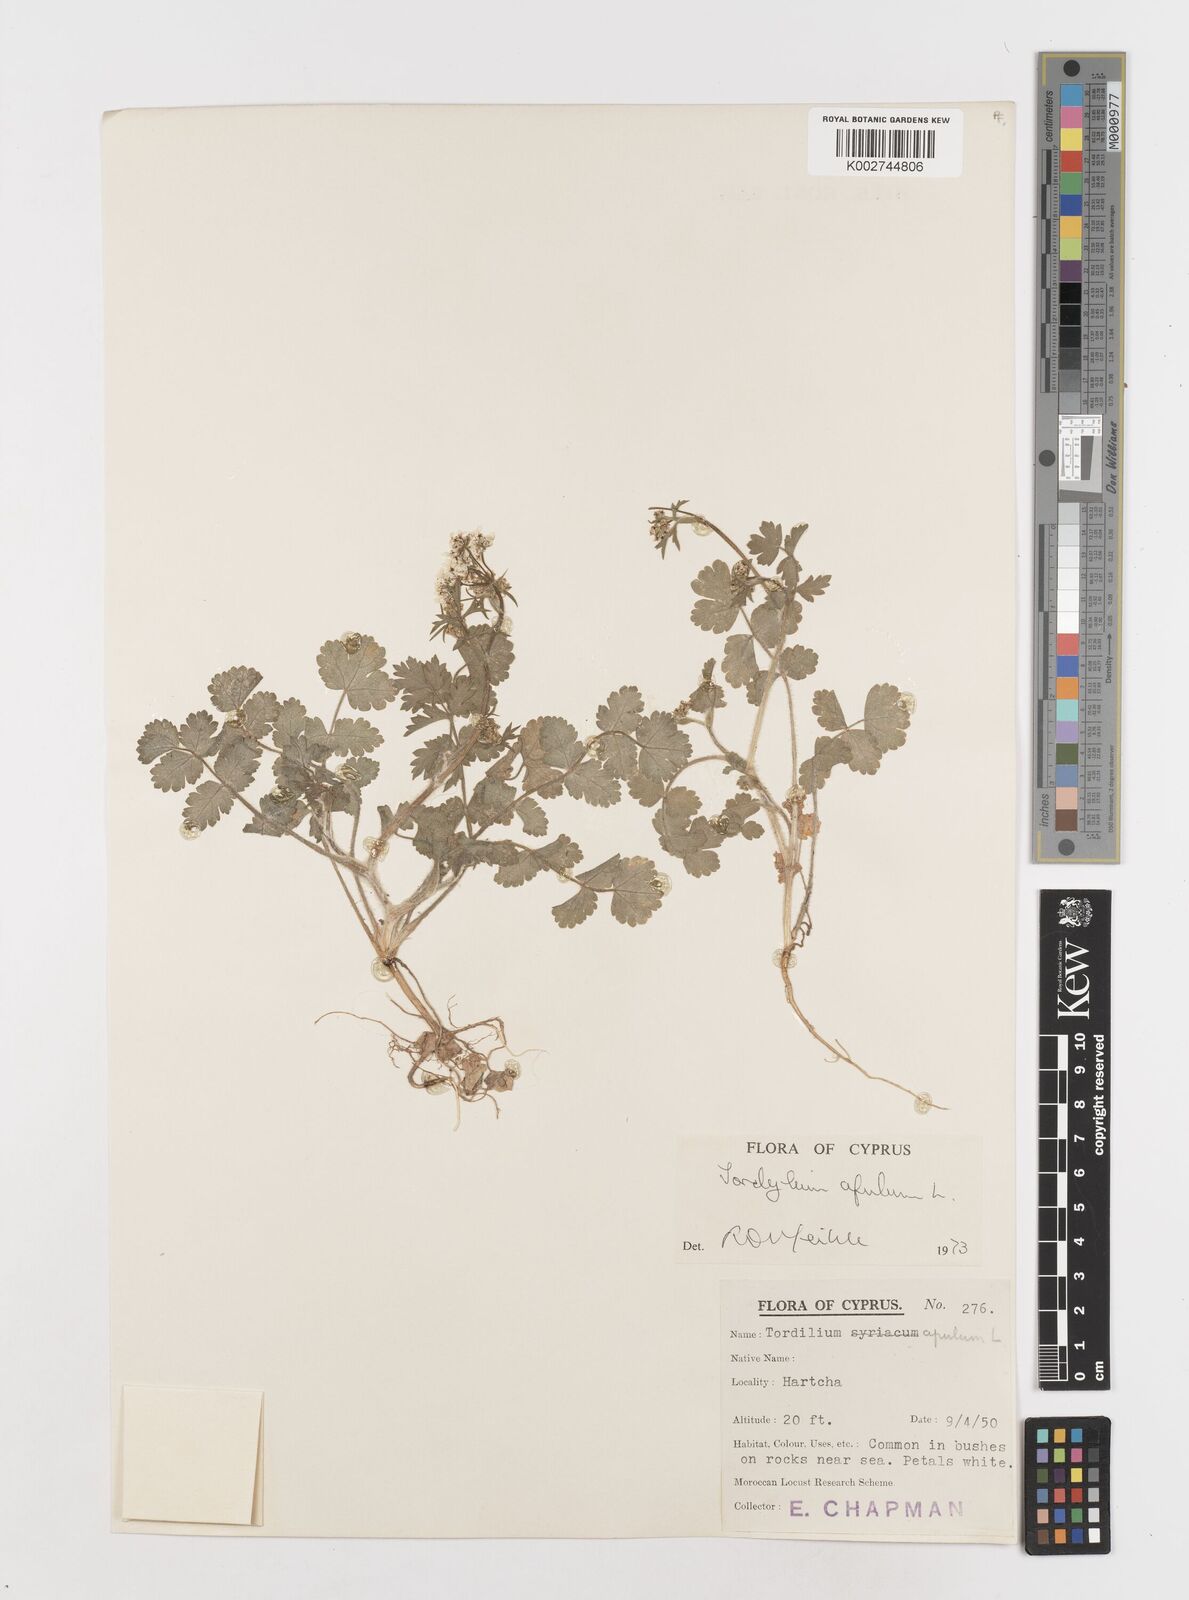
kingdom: Plantae
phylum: Tracheophyta
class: Magnoliopsida
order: Apiales
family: Apiaceae
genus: Tordylium
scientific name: Tordylium apulum
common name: Mediterranean hartwort
